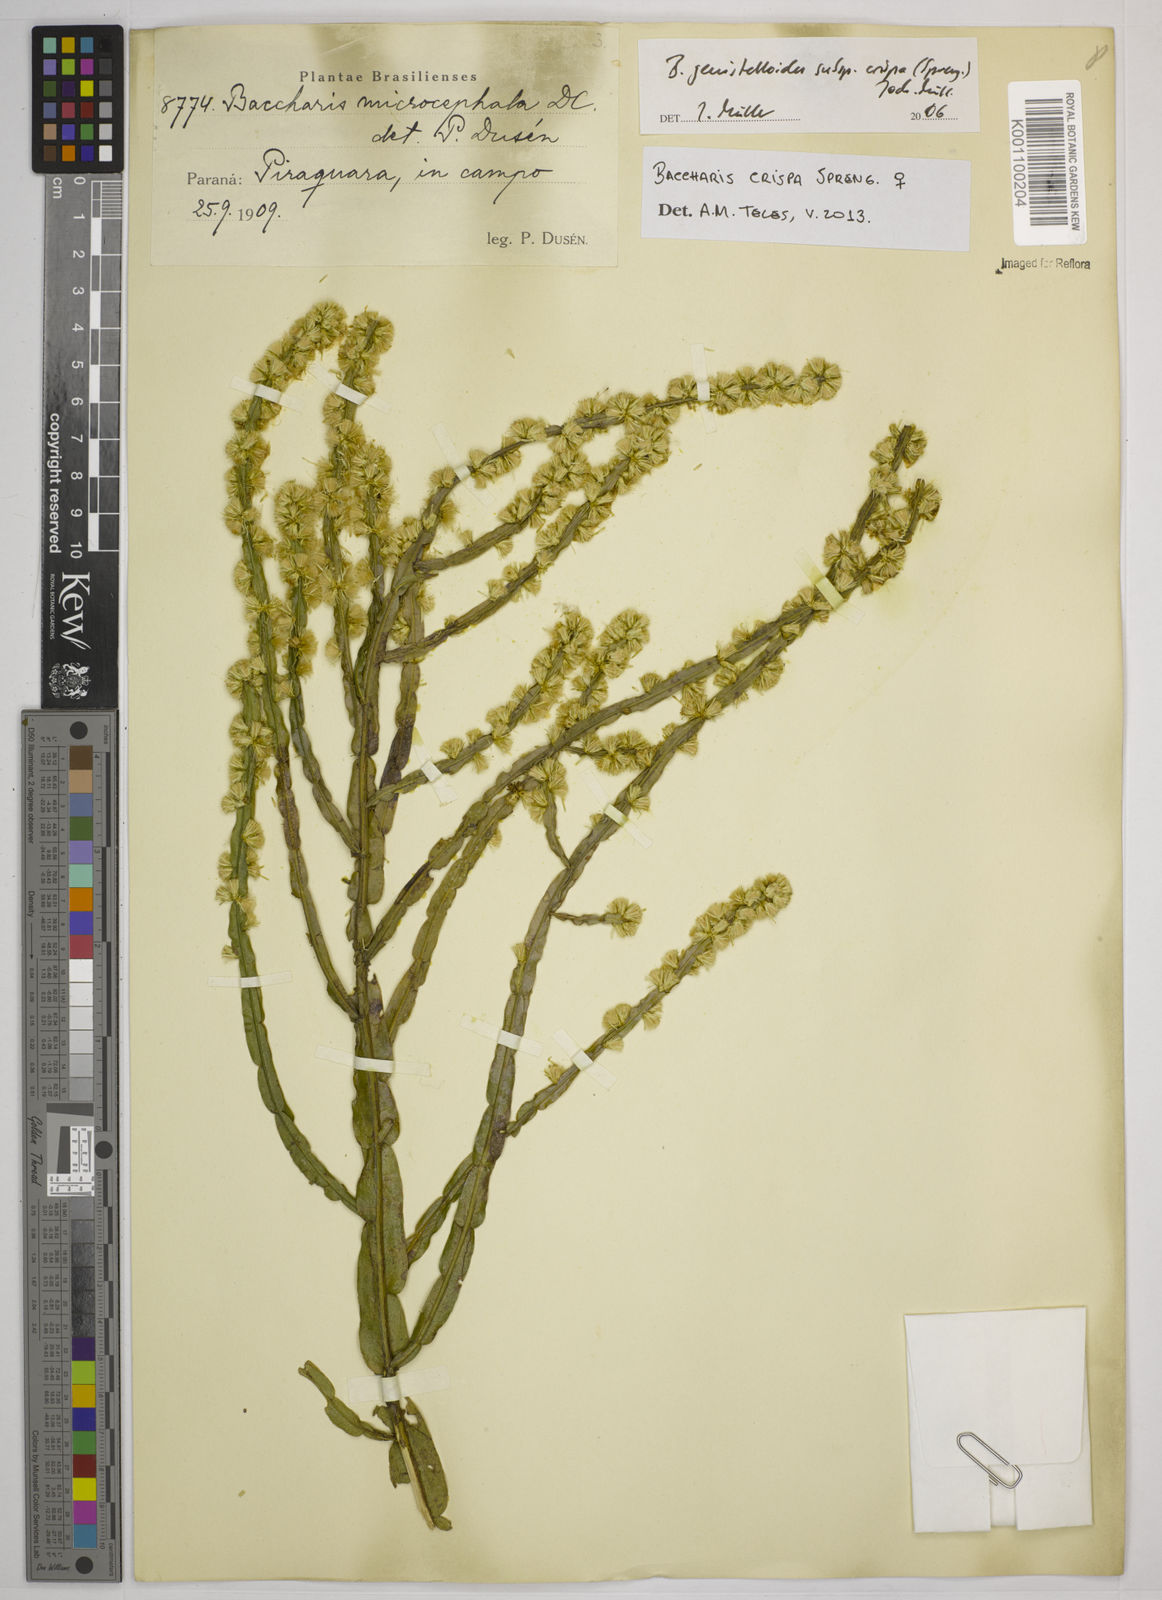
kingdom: Plantae
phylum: Tracheophyta
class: Magnoliopsida
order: Asterales
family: Asteraceae
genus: Baccharis
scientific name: Baccharis crispa
